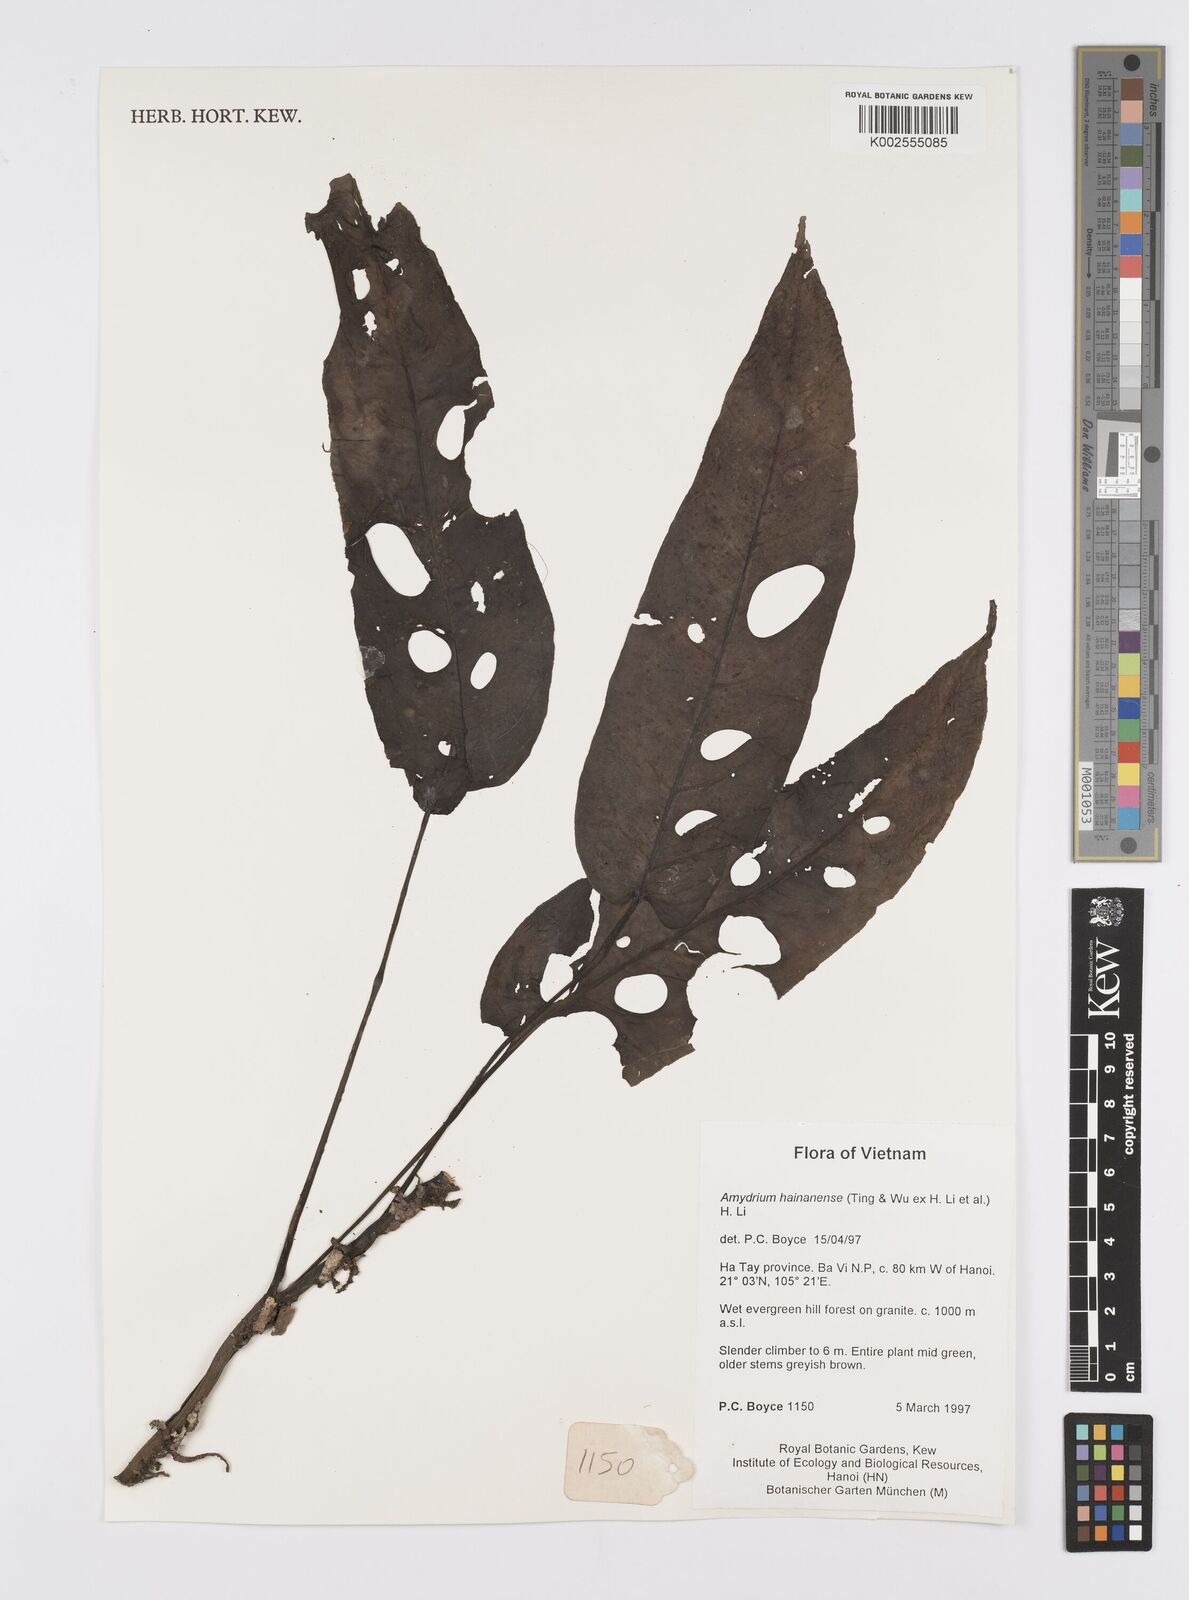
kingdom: Plantae
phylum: Tracheophyta
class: Liliopsida
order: Alismatales
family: Araceae
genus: Amydrium
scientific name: Amydrium hainanense
